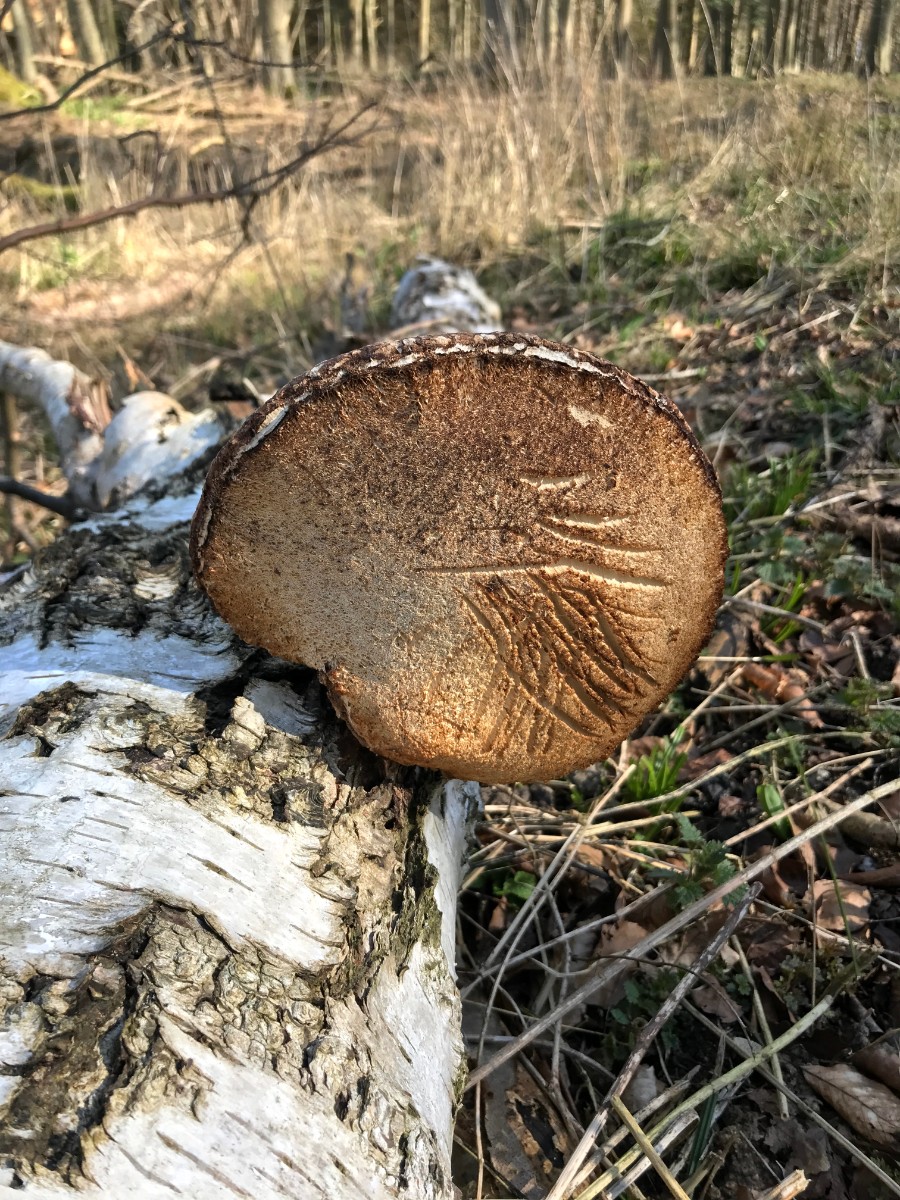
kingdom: Fungi
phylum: Basidiomycota
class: Agaricomycetes
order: Polyporales
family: Fomitopsidaceae
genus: Fomitopsis
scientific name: Fomitopsis betulina
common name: birkeporesvamp
